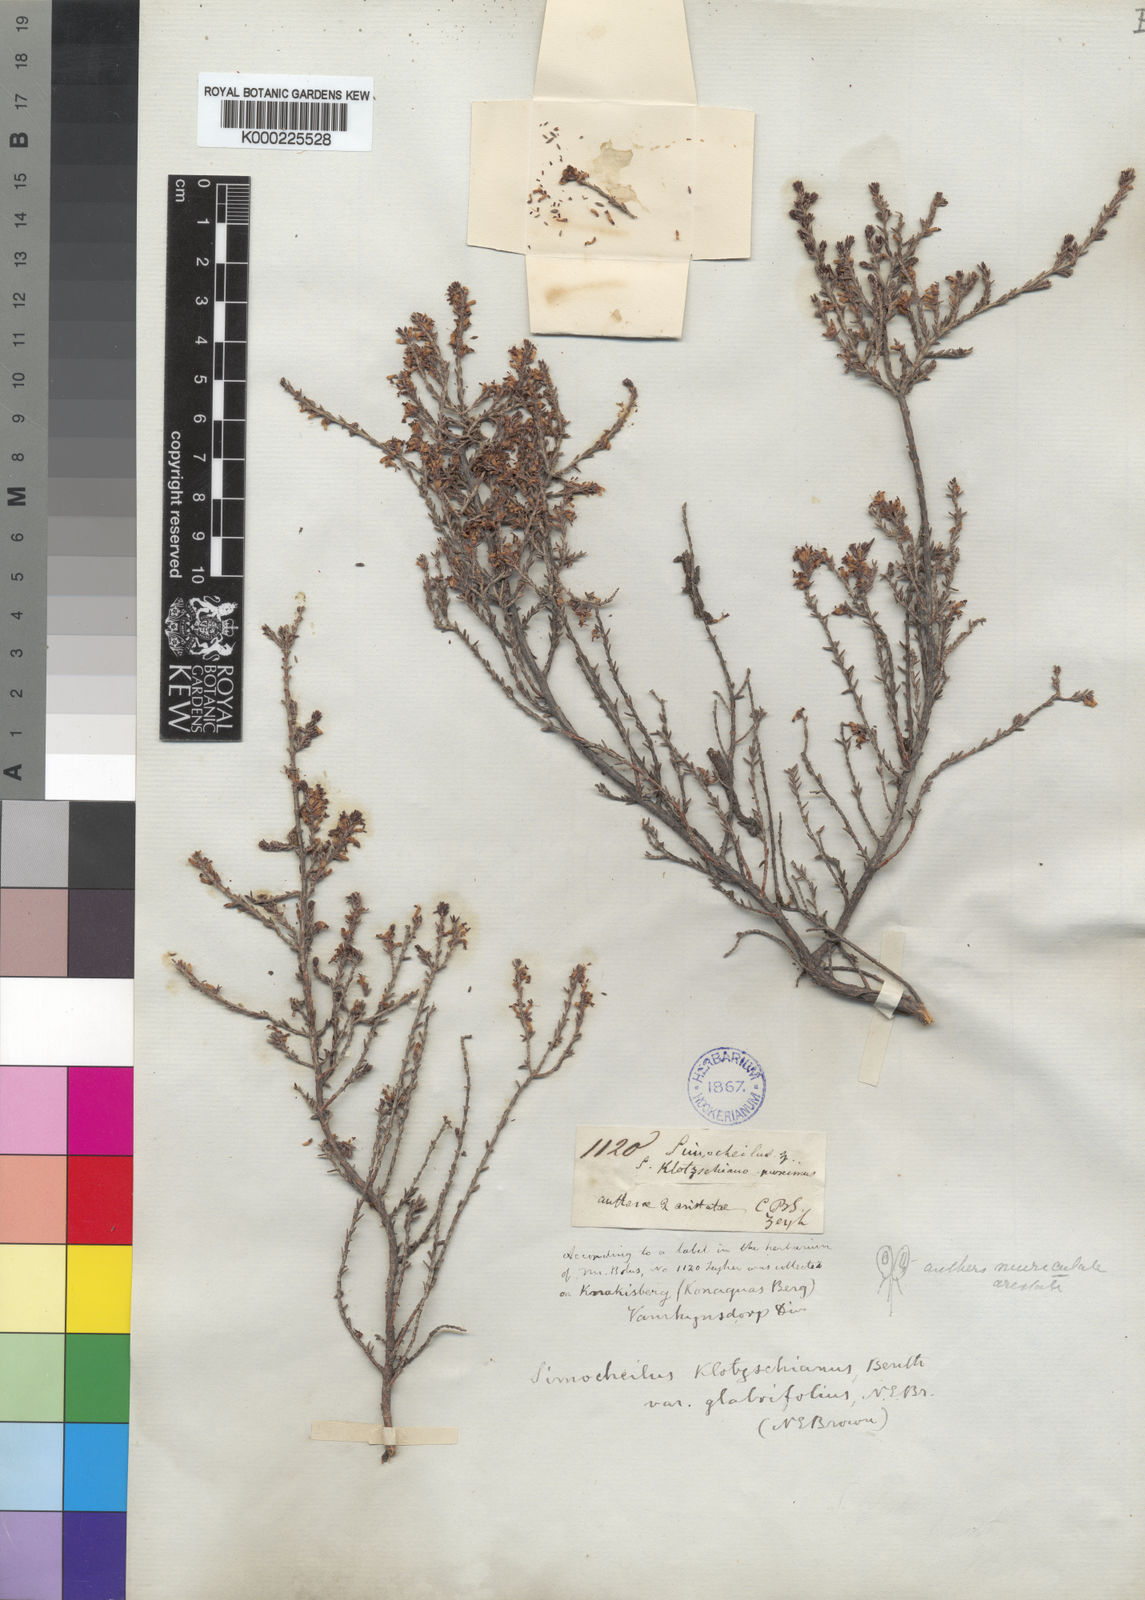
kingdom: Plantae
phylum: Tracheophyta
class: Magnoliopsida
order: Ericales
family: Ericaceae
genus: Erica
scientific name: Erica glabra
